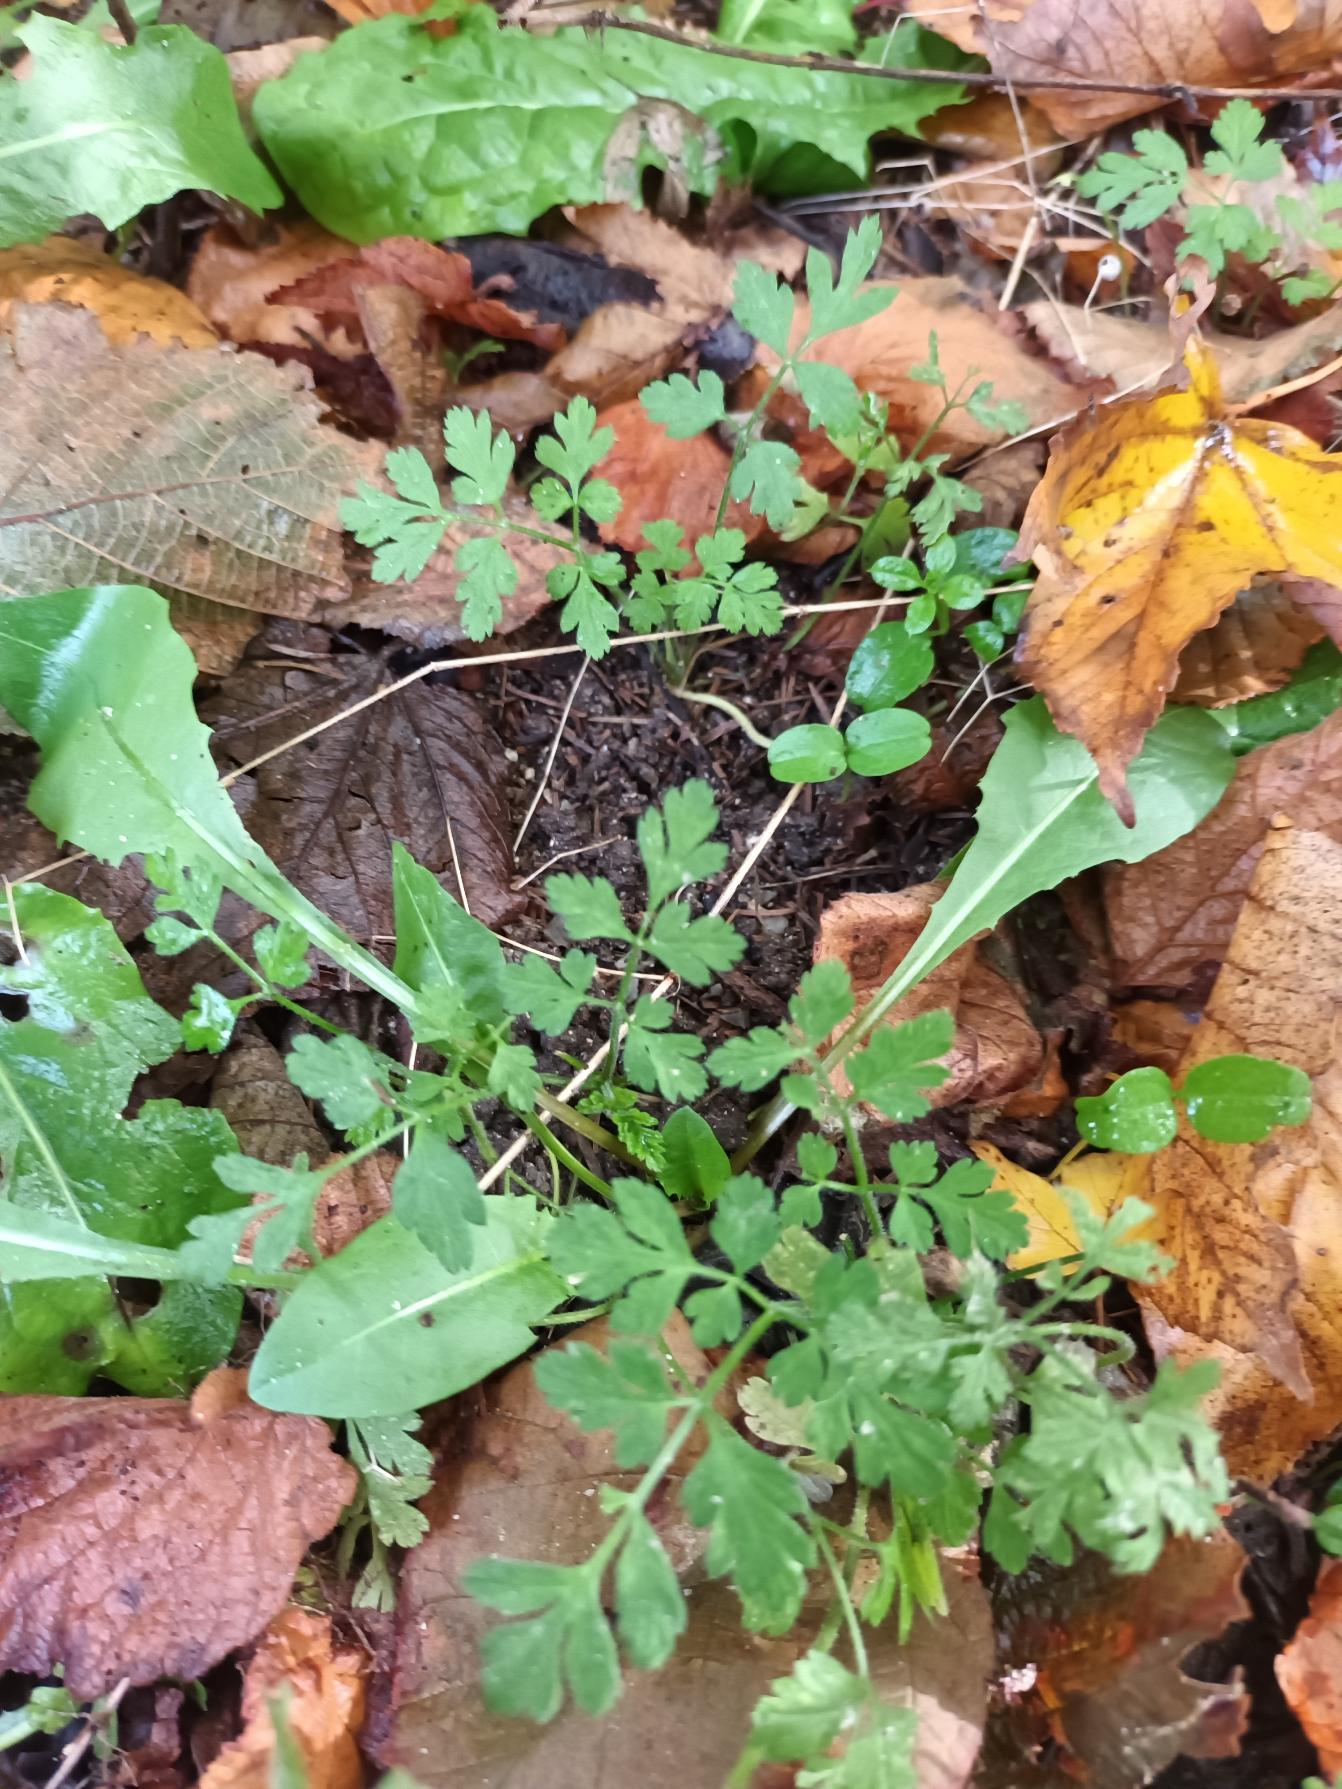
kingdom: Plantae
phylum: Tracheophyta
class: Magnoliopsida
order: Apiales
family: Apiaceae
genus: Chaerophyllum
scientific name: Chaerophyllum temulum
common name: Almindelig hulsvøb
